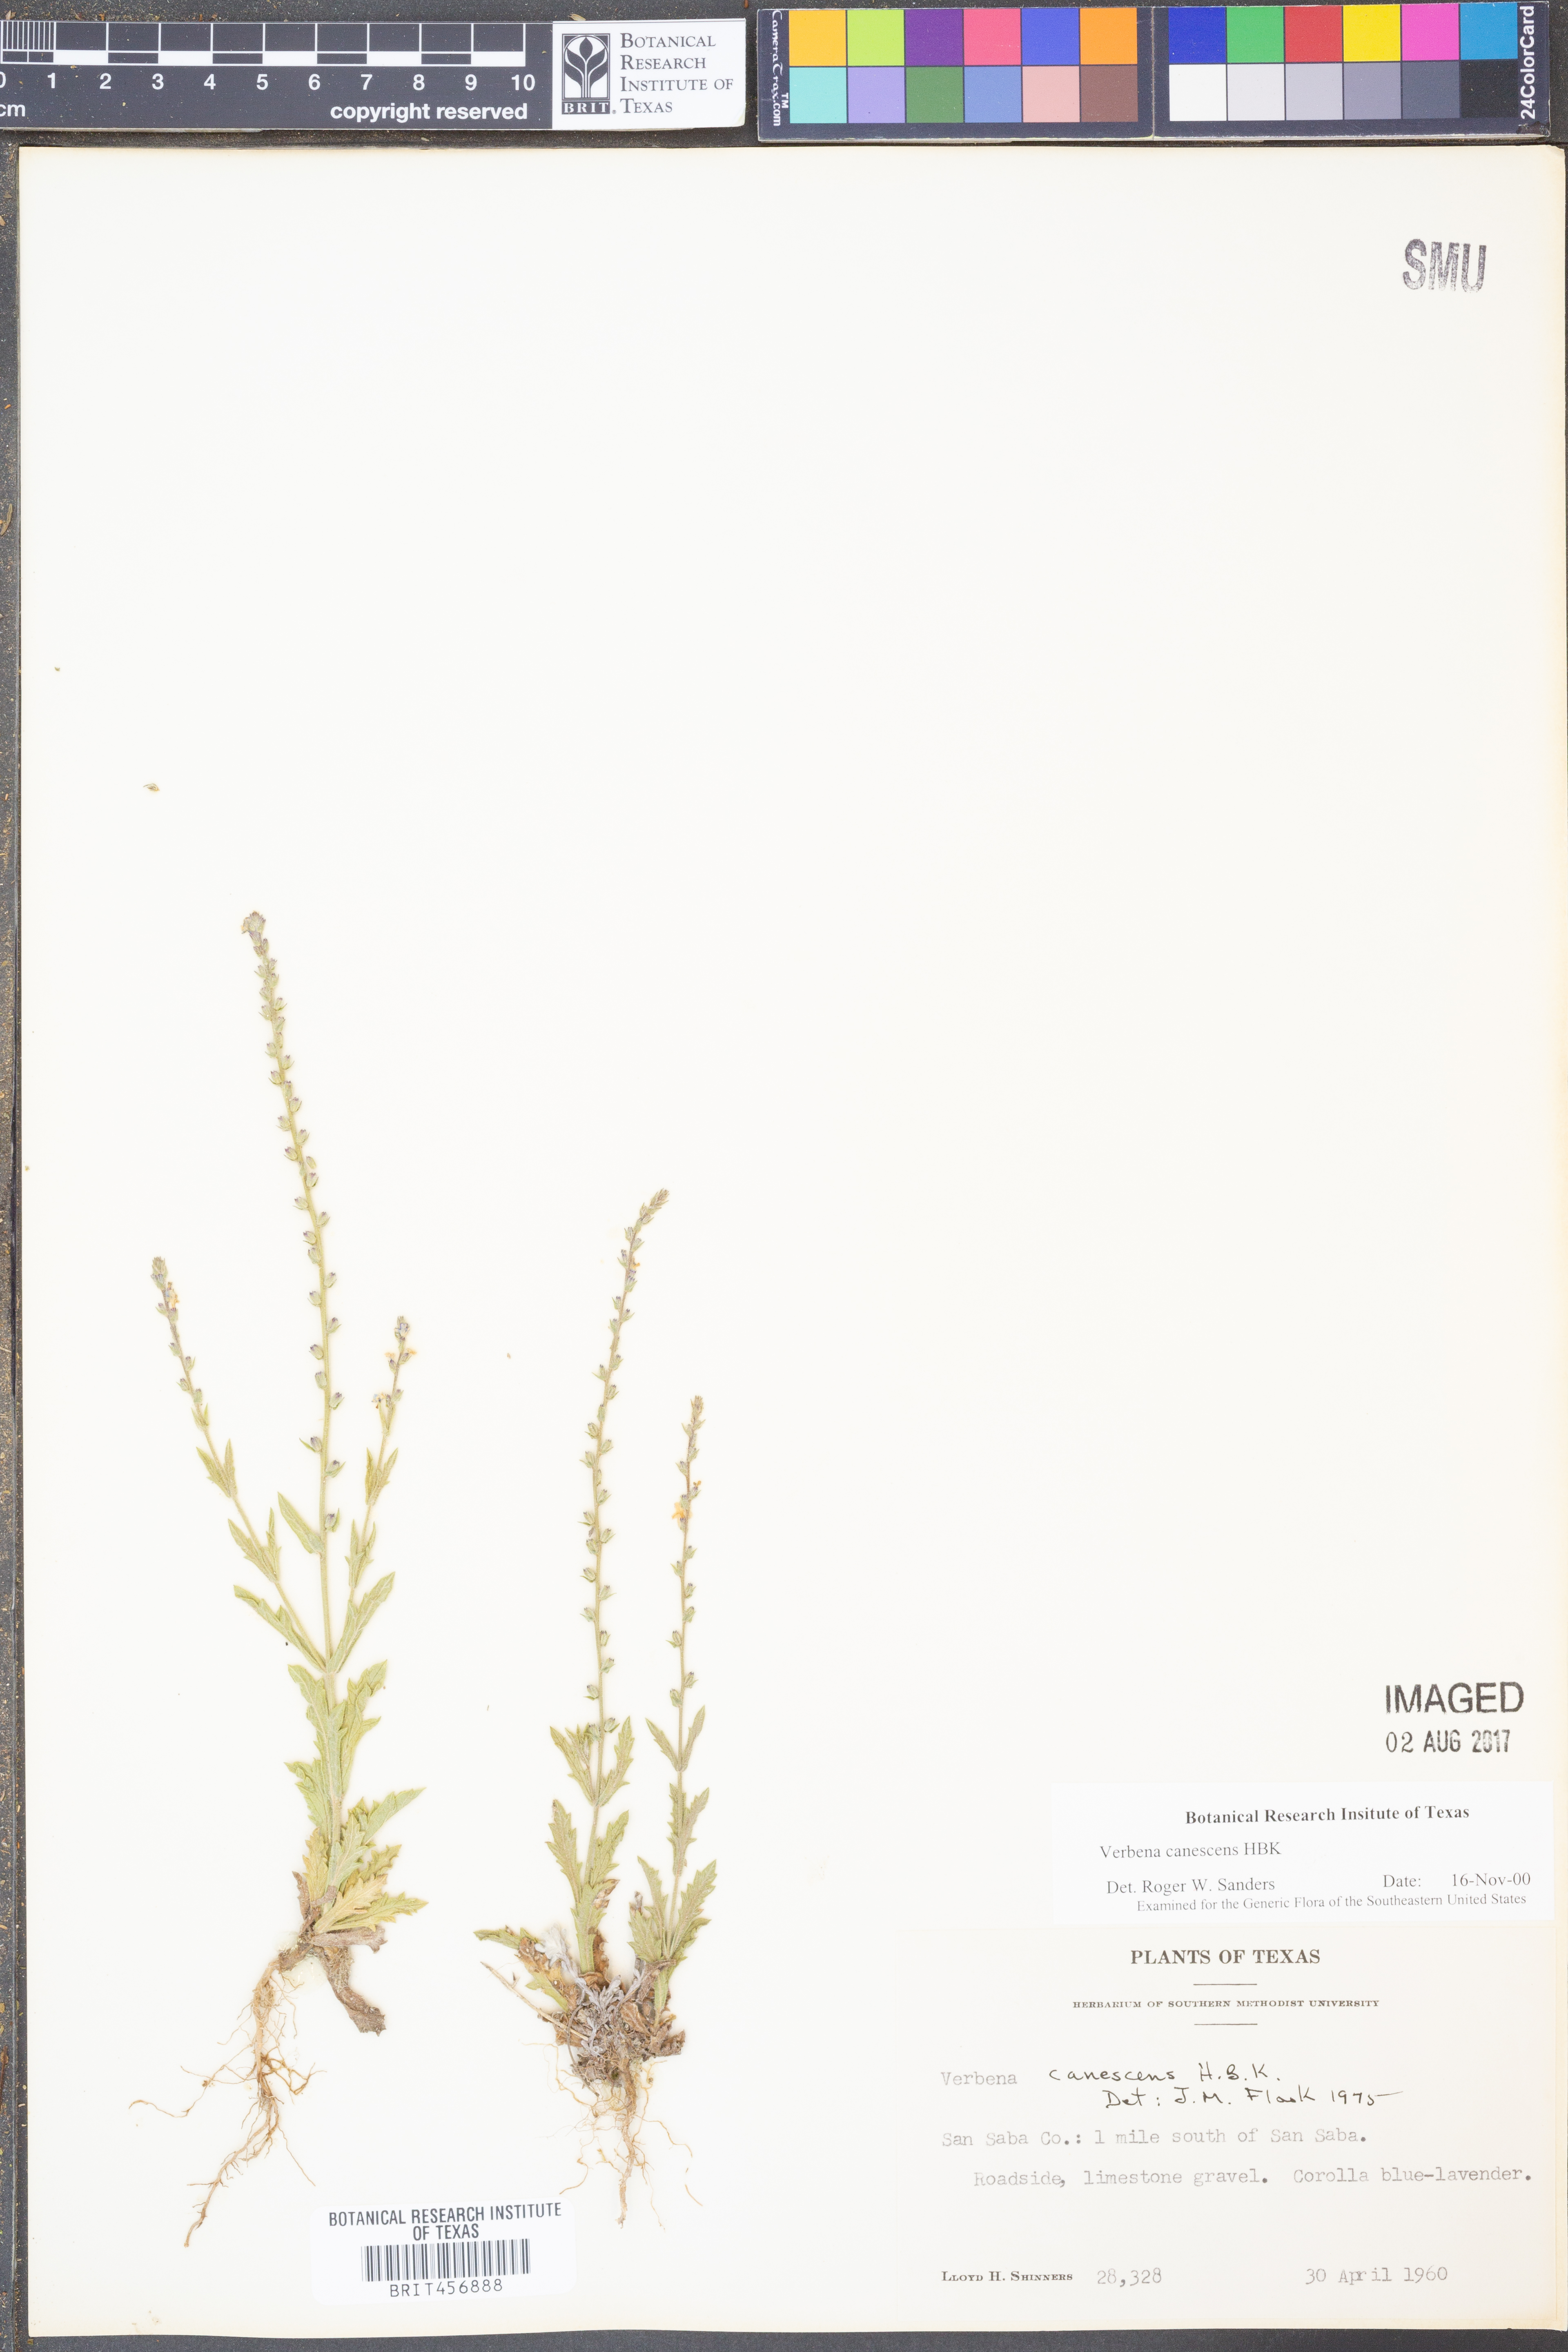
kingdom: Plantae
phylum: Tracheophyta
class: Magnoliopsida
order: Lamiales
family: Verbenaceae
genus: Verbena
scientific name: Verbena canescens
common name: Gray vervain
